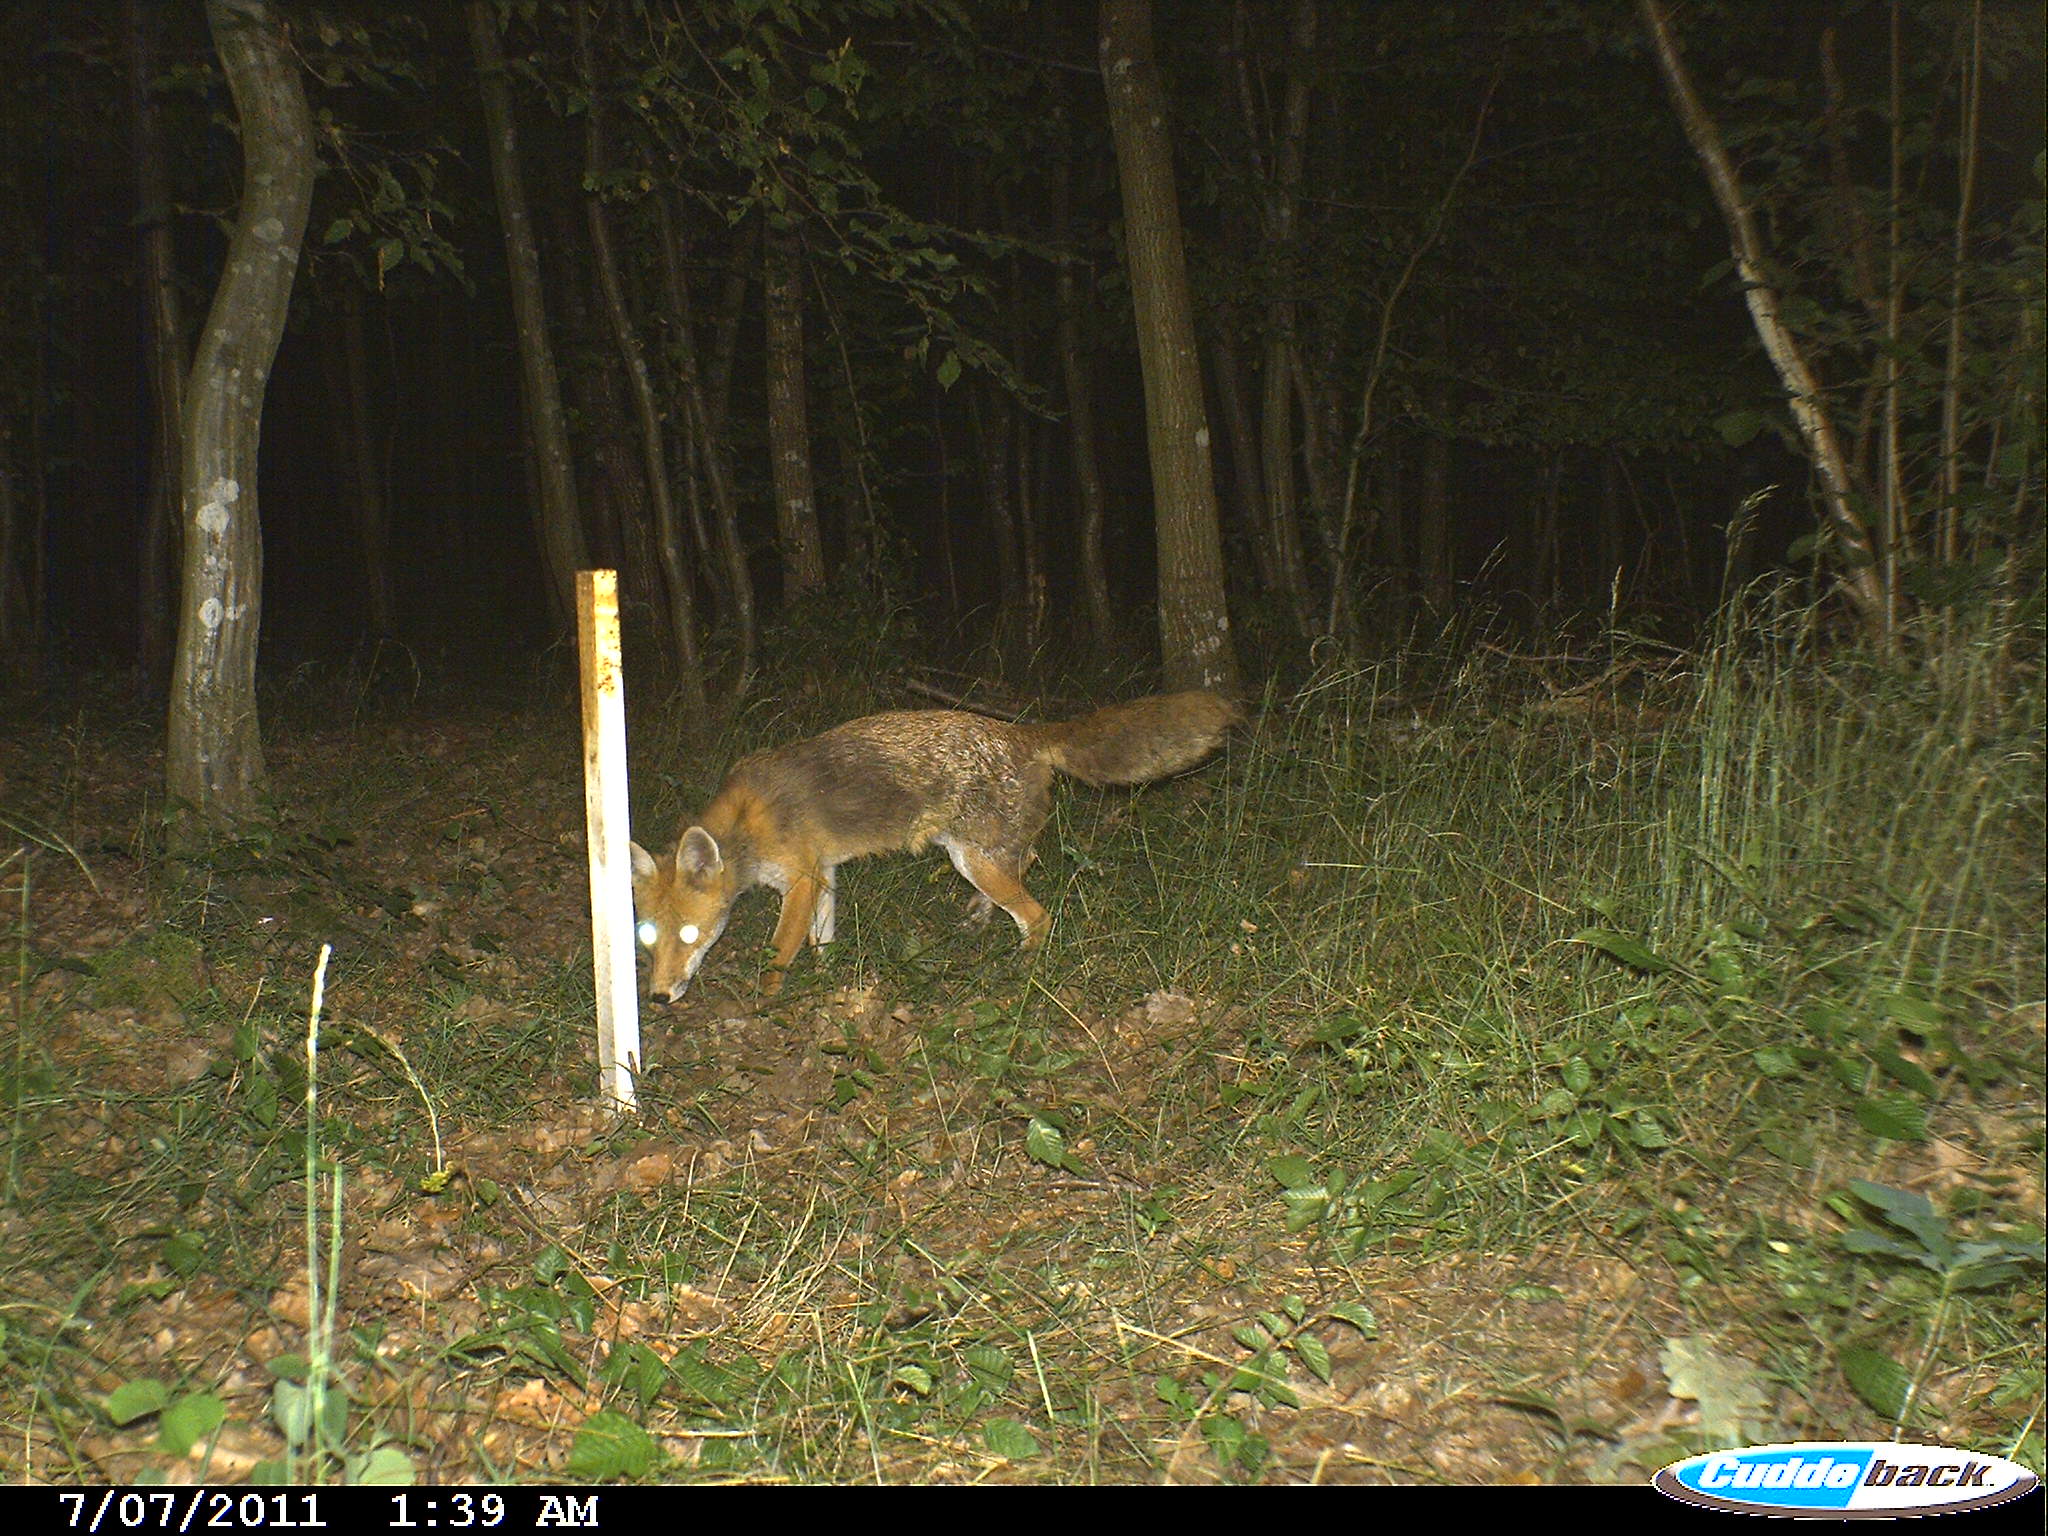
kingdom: Animalia
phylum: Chordata
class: Mammalia
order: Carnivora
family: Canidae
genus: Vulpes
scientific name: Vulpes vulpes
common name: Red fox
